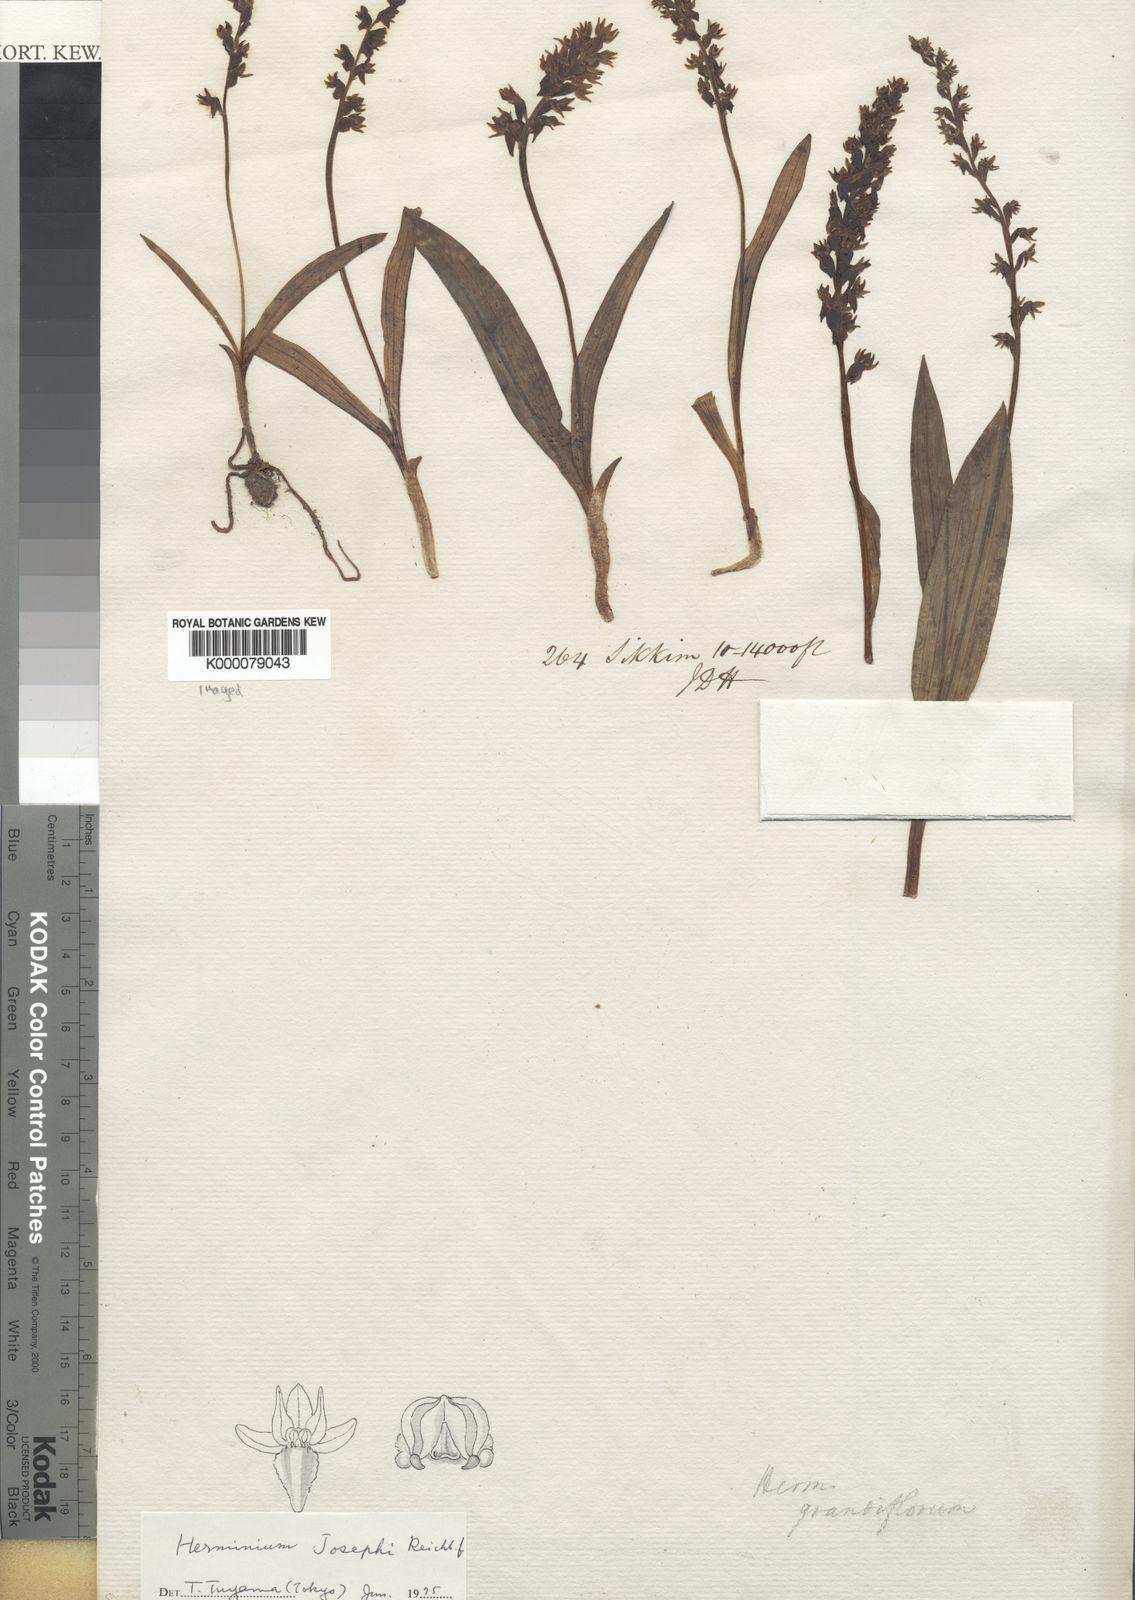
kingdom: Plantae
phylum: Tracheophyta
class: Liliopsida
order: Asparagales
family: Orchidaceae
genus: Herminium
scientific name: Herminium josephi
